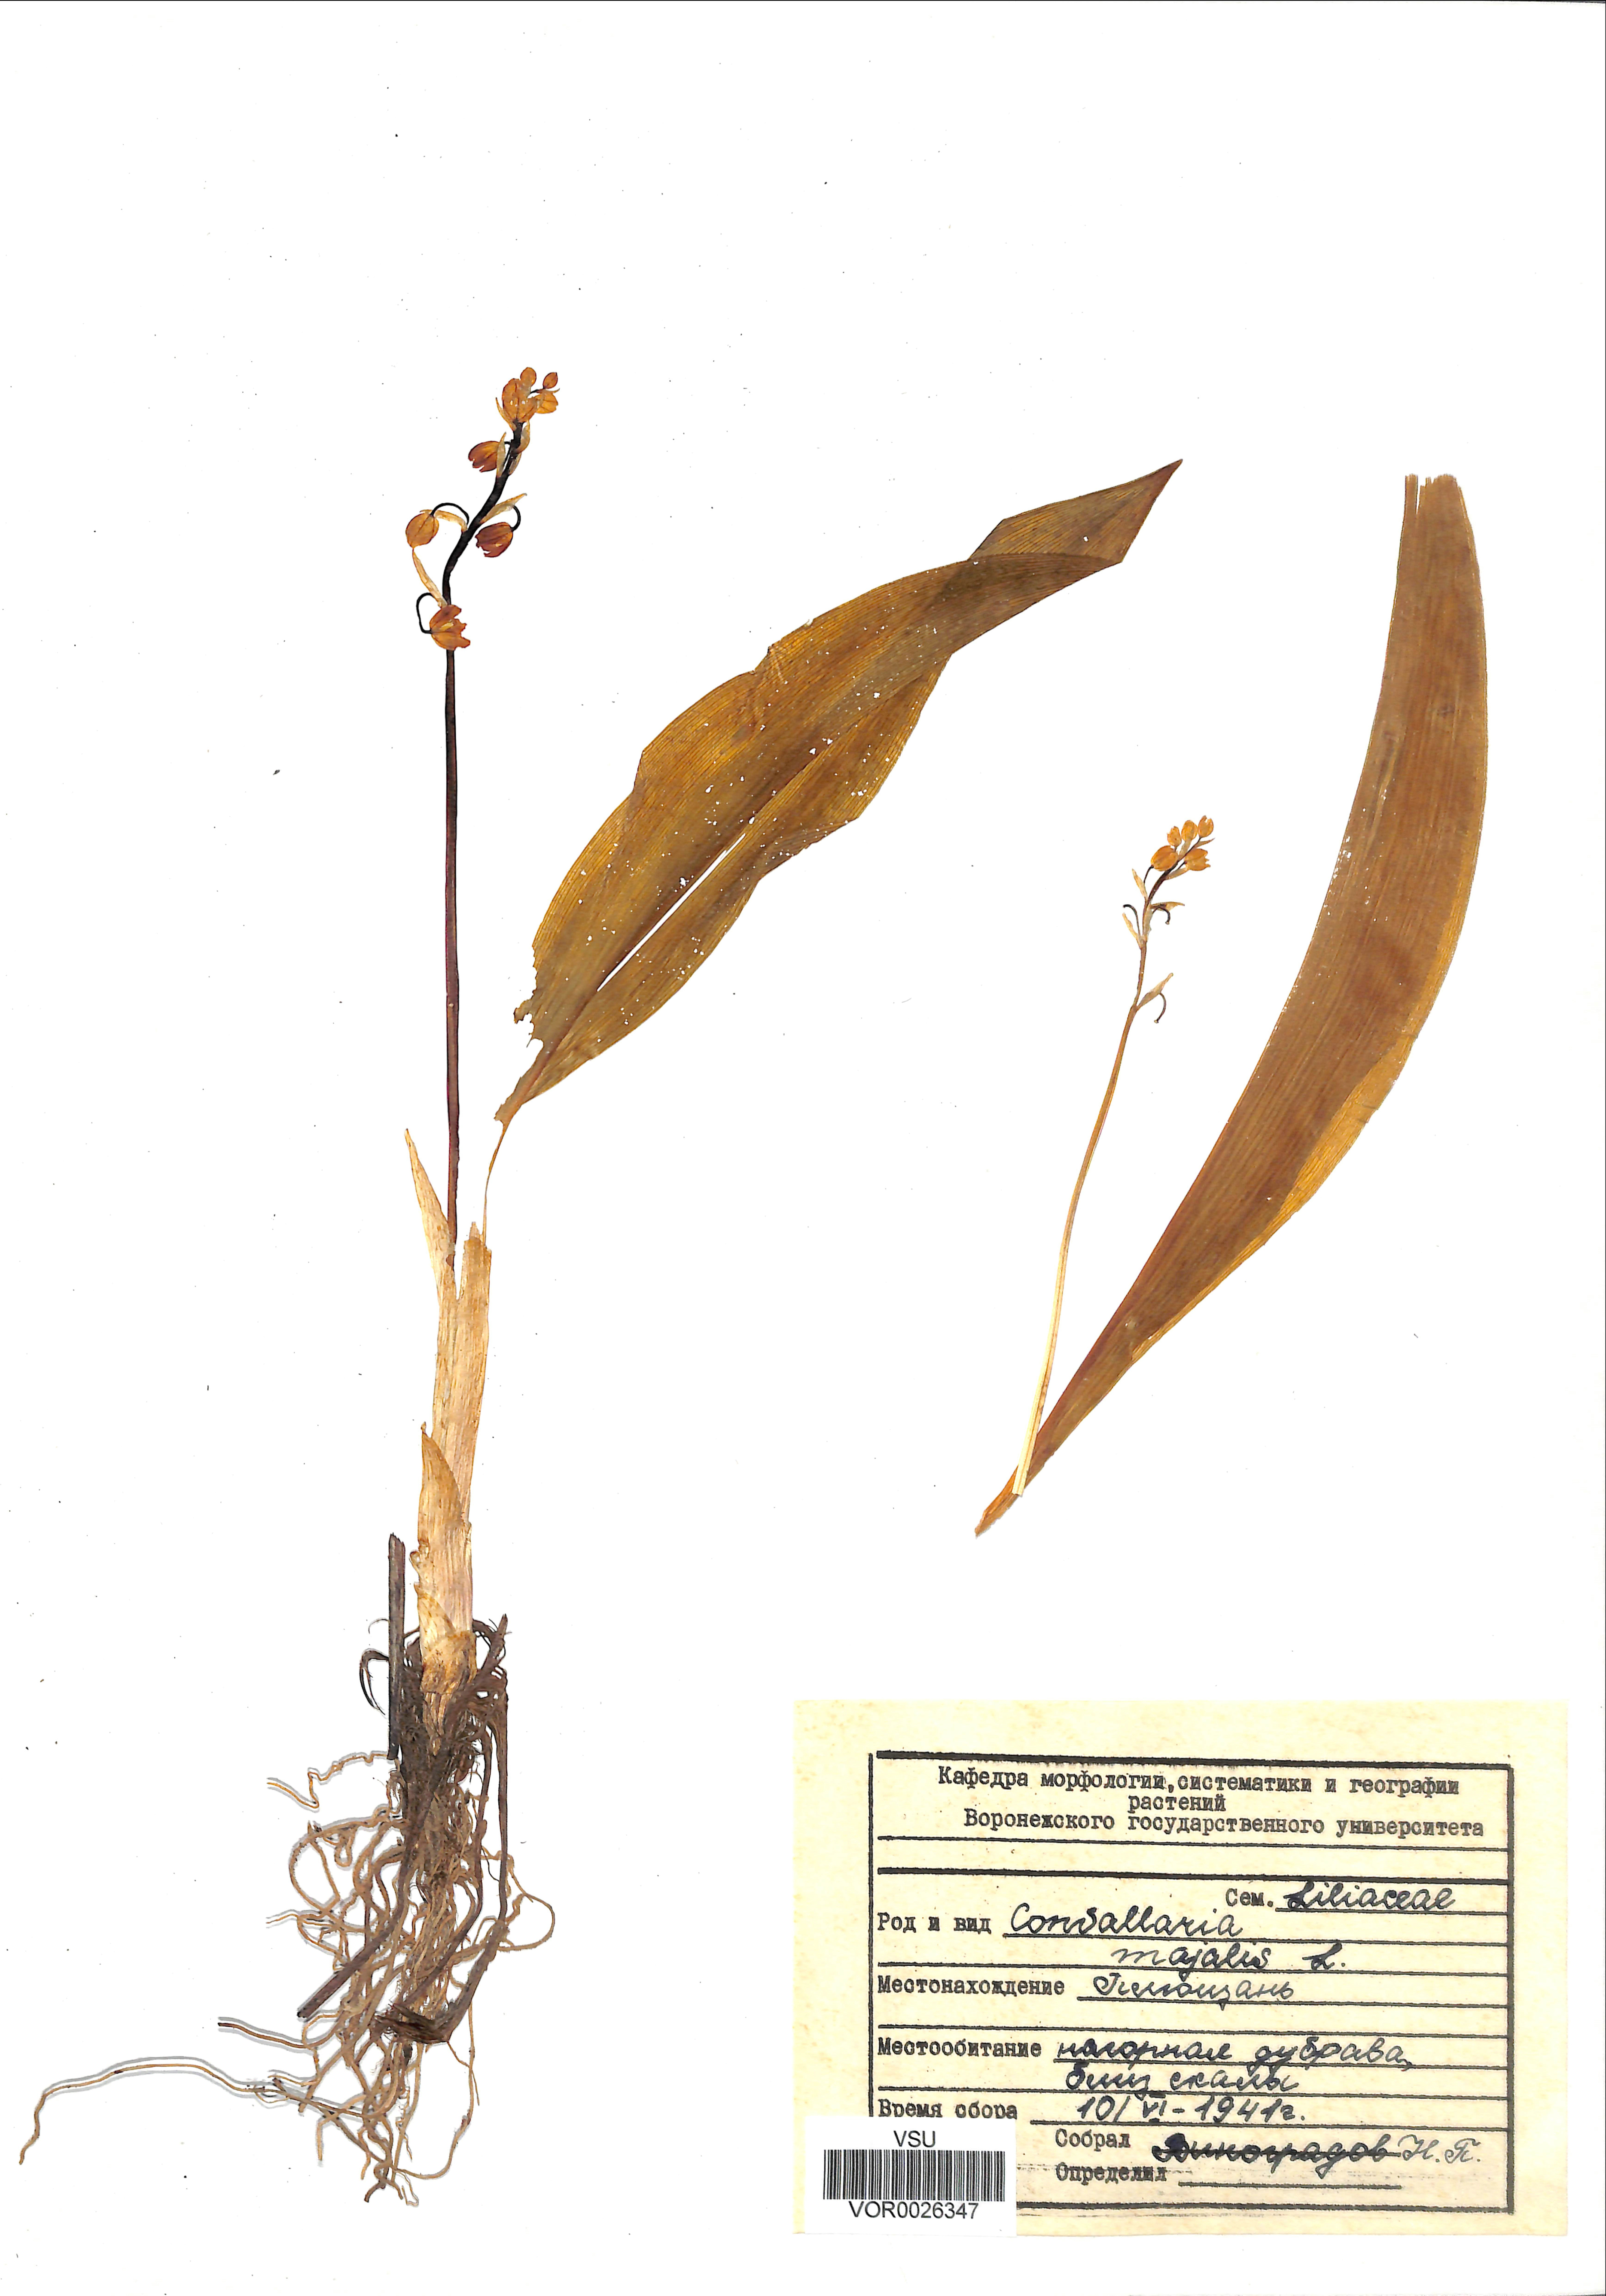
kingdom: Plantae
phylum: Tracheophyta
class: Liliopsida
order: Asparagales
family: Asparagaceae
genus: Convallaria
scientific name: Convallaria majalis
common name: Lily-of-the-valley
